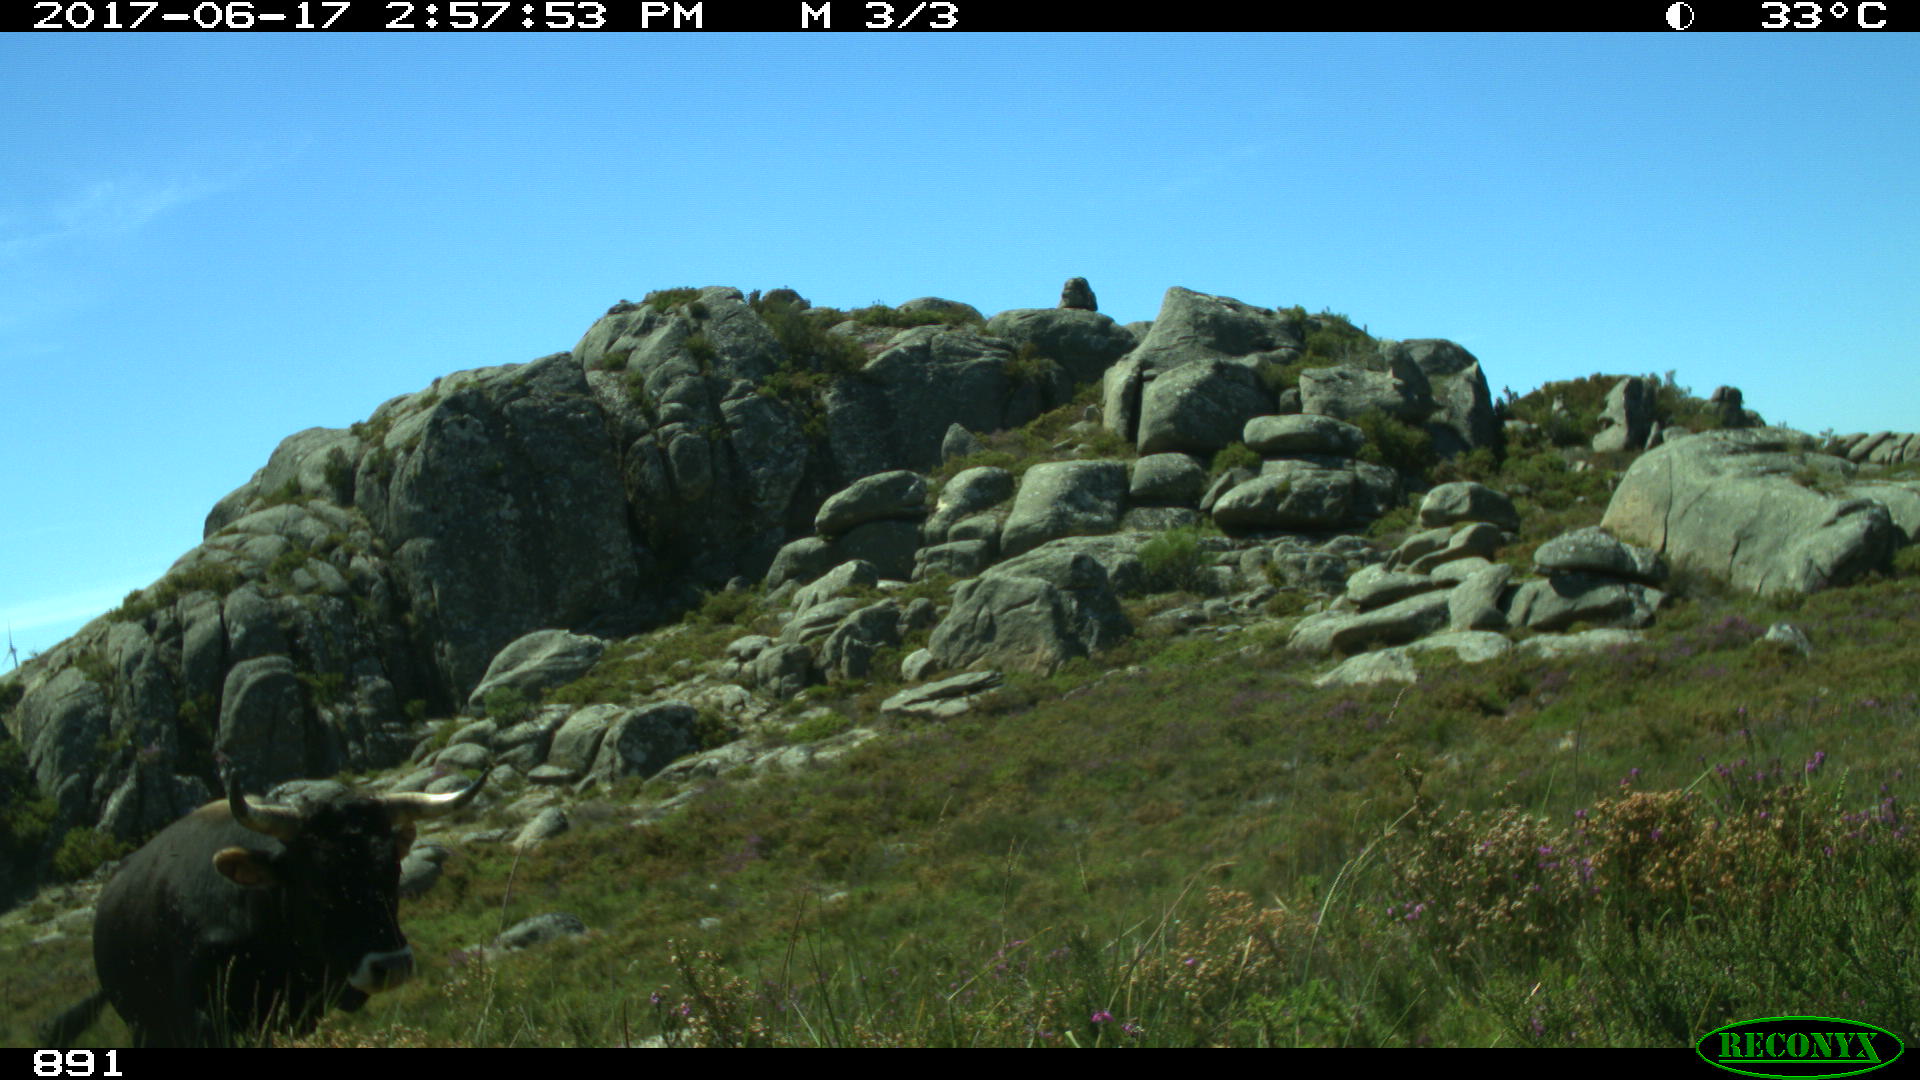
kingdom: Animalia
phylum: Chordata
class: Mammalia
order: Artiodactyla
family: Bovidae
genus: Bos
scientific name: Bos taurus
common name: Domesticated cattle
